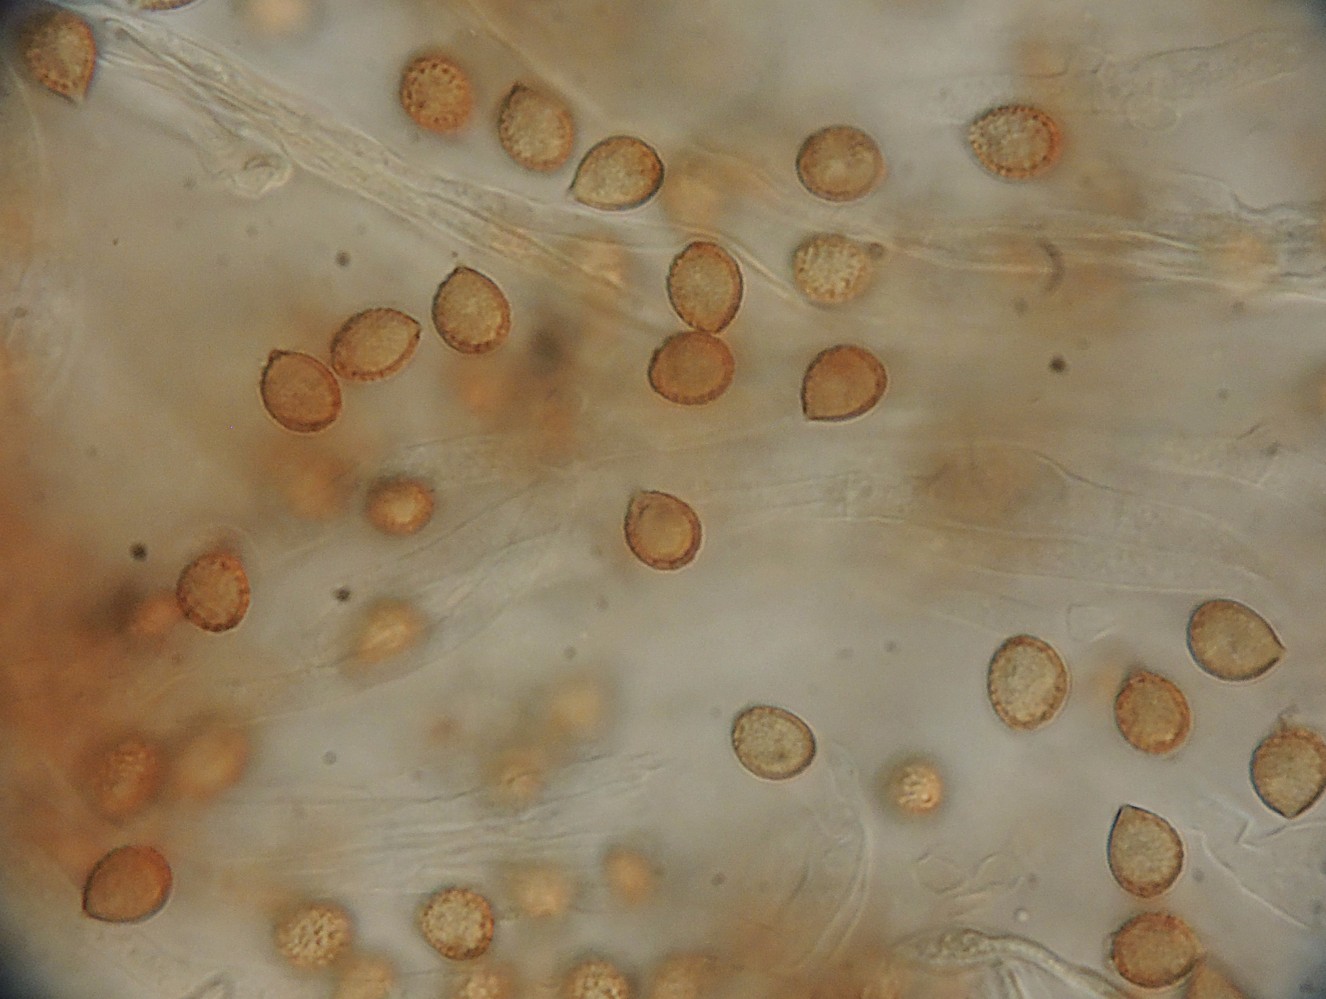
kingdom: Fungi
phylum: Basidiomycota
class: Agaricomycetes
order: Agaricales
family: Cortinariaceae
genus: Cortinarius
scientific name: Cortinarius infractus
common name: galde-slørhat
